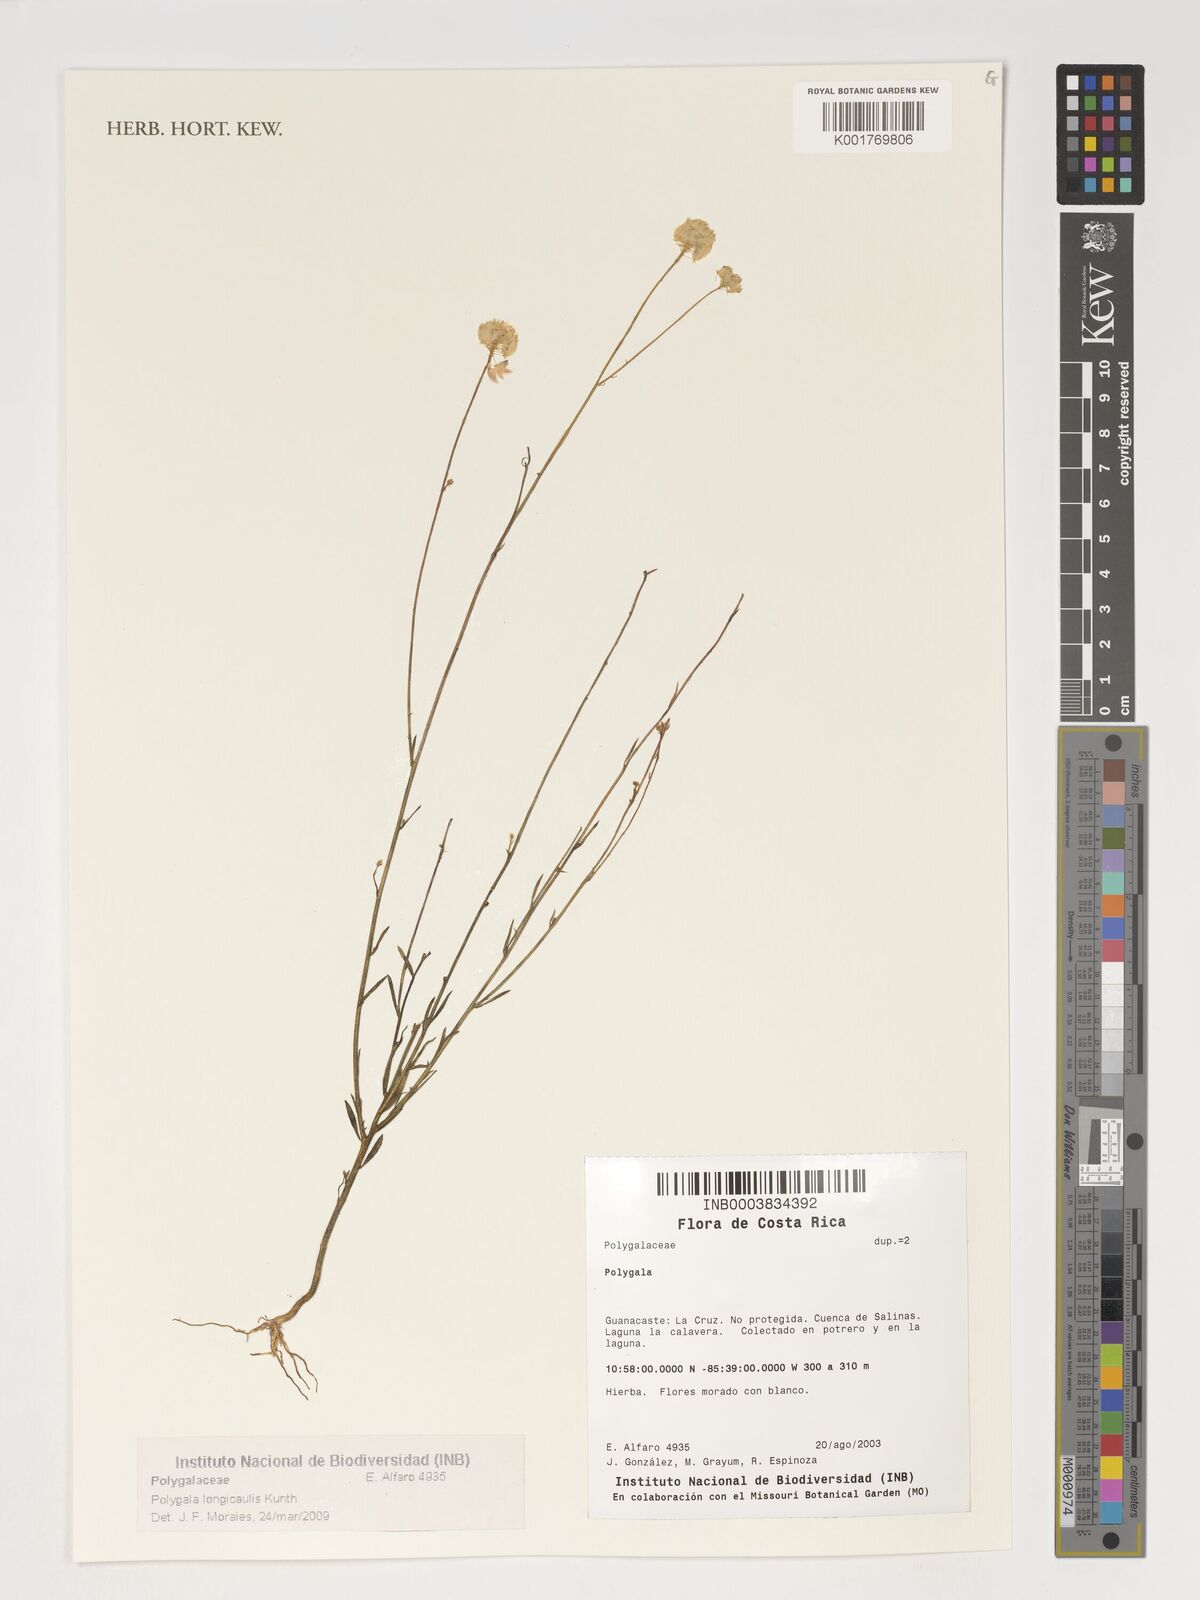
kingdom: Plantae
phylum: Tracheophyta
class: Magnoliopsida
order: Fabales
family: Polygalaceae
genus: Polygala
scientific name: Polygala longicaulis
